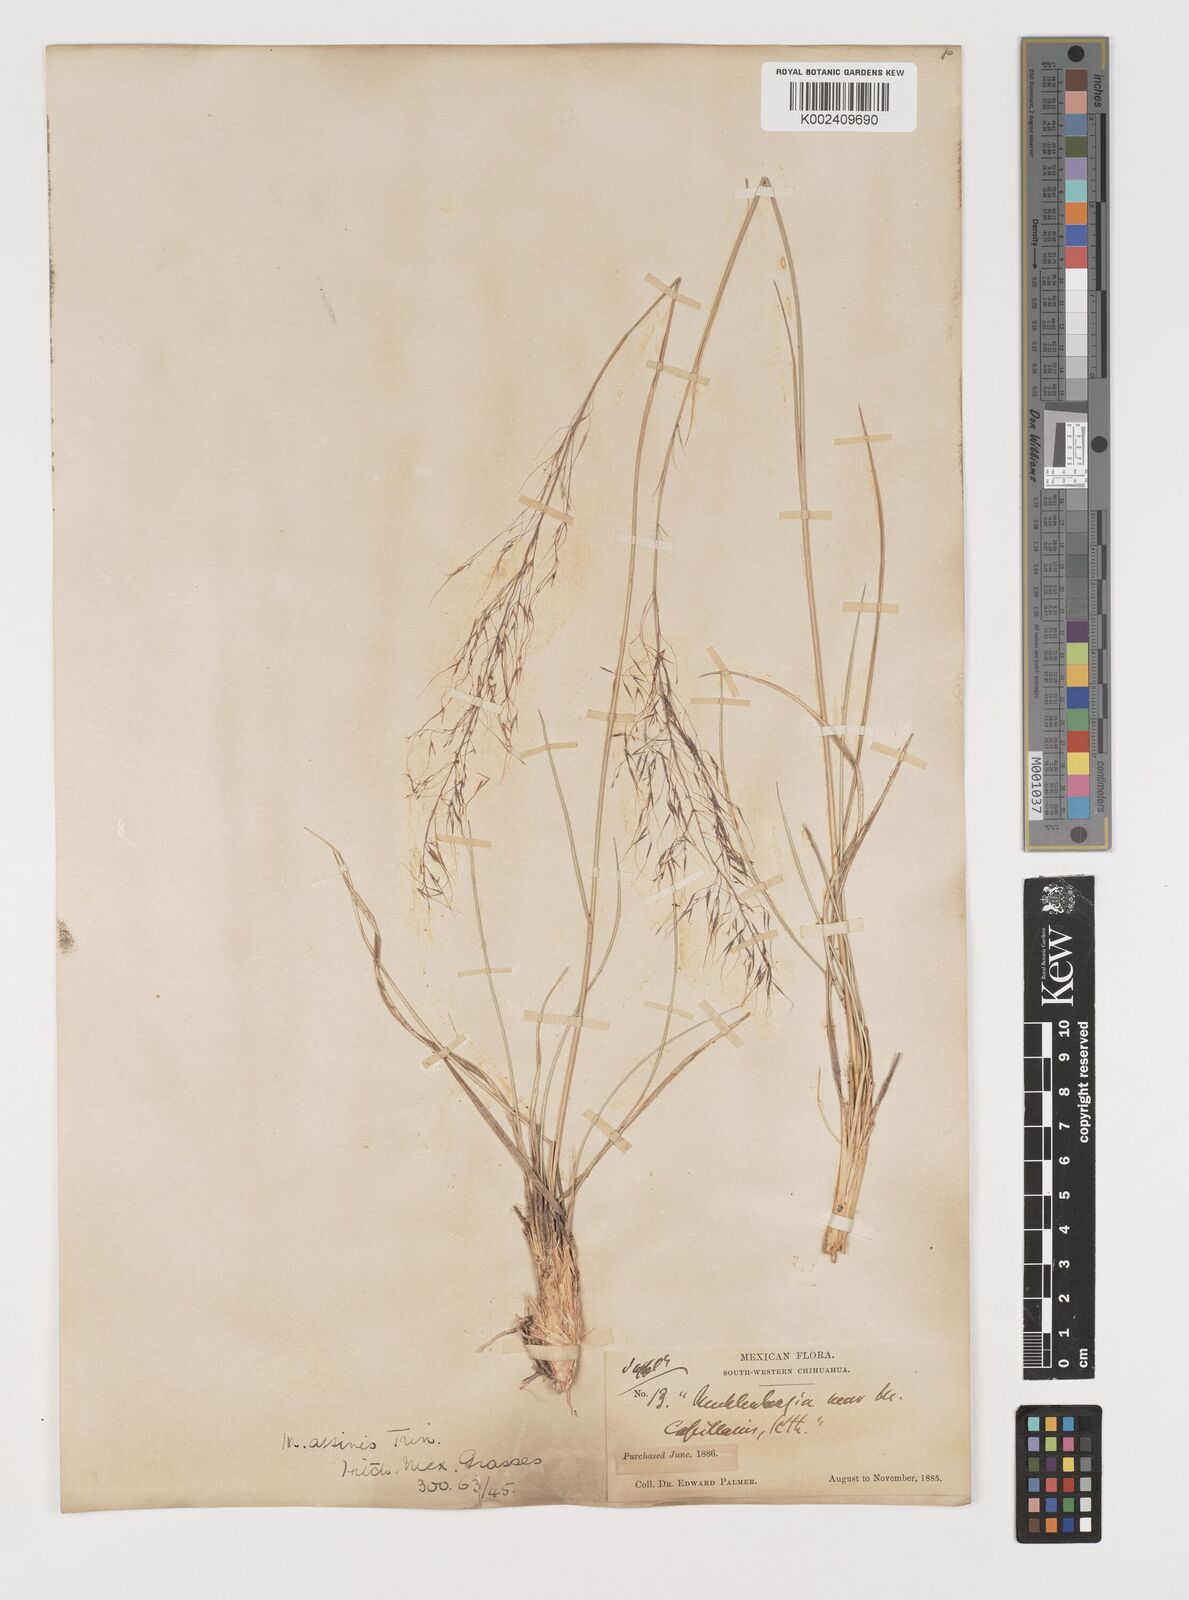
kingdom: Plantae
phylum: Tracheophyta
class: Liliopsida
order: Poales
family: Poaceae
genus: Muhlenbergia
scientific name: Muhlenbergia rigida
